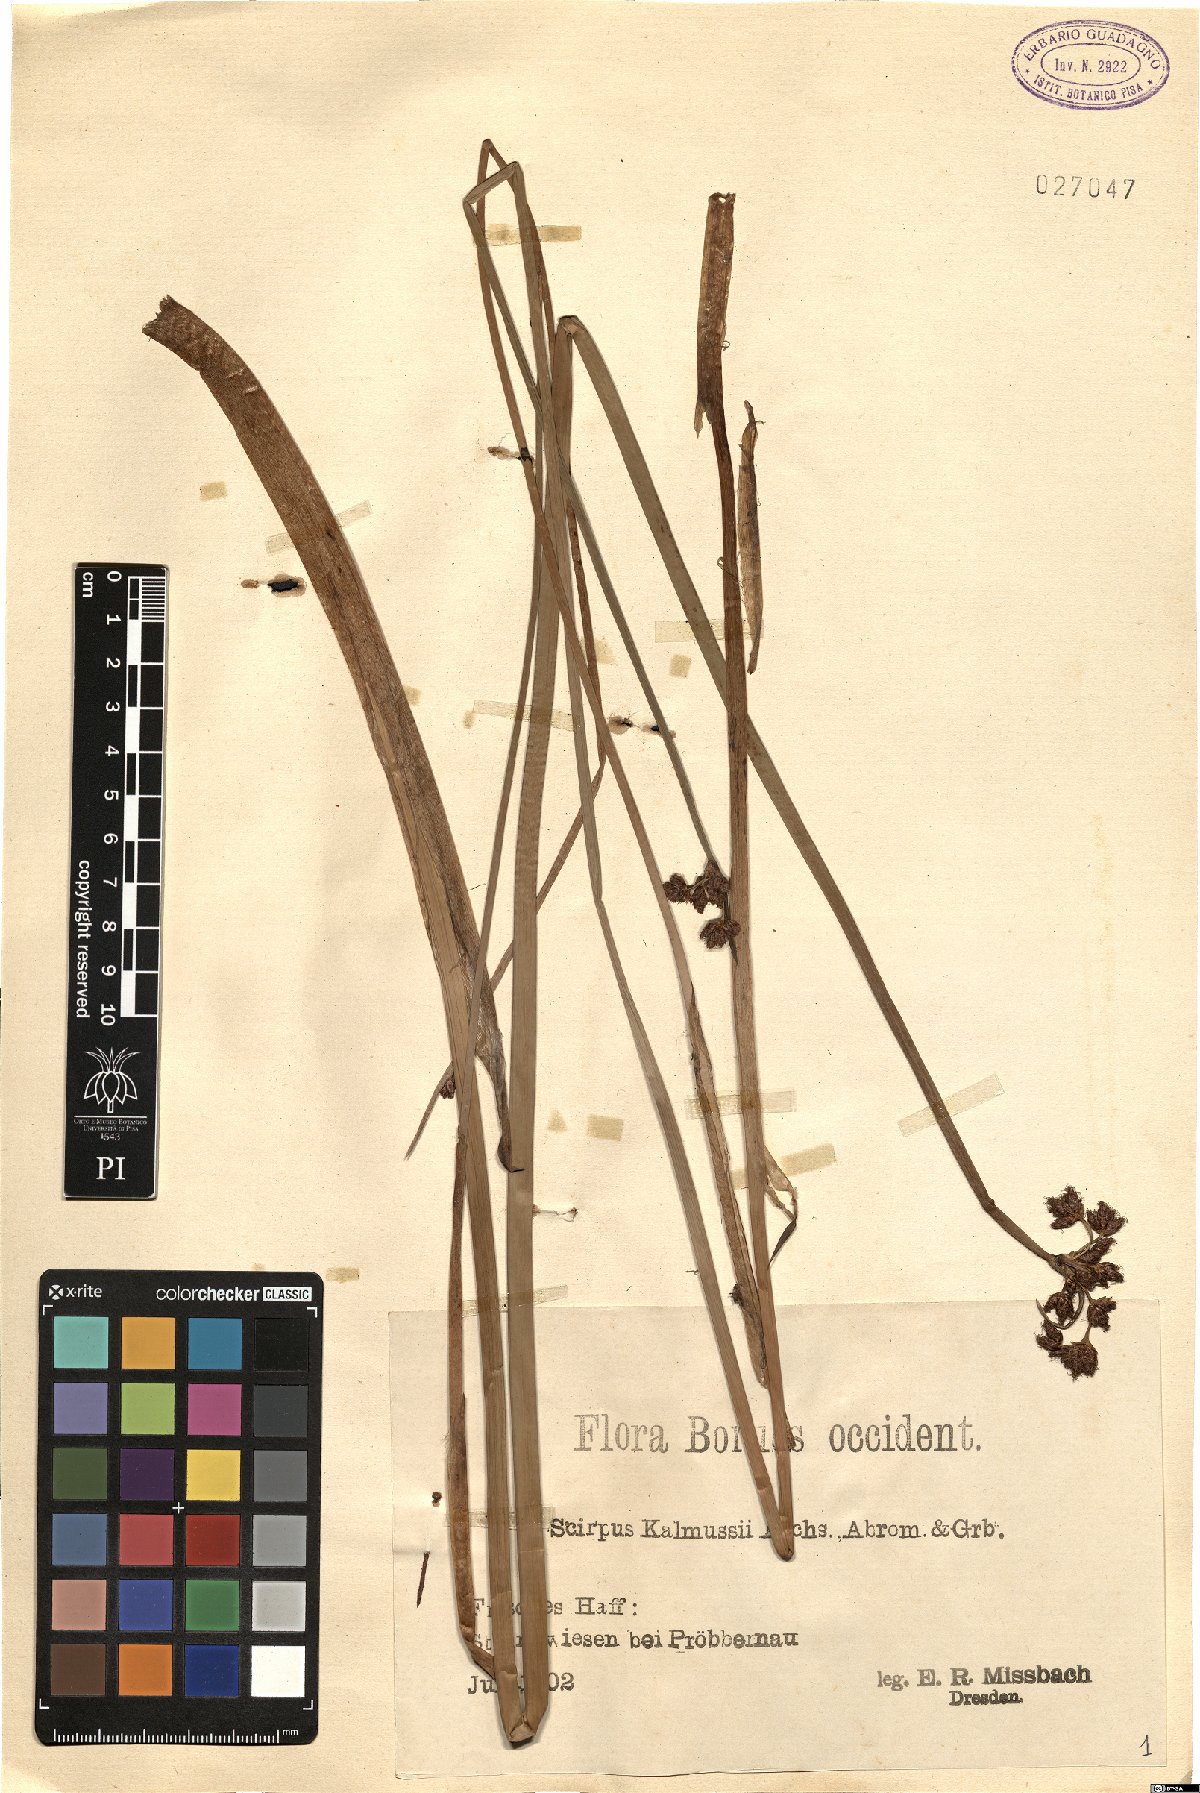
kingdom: Plantae
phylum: Tracheophyta
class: Liliopsida
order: Poales
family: Cyperaceae
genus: Schoenoplectus
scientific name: Schoenoplectus carinatus
